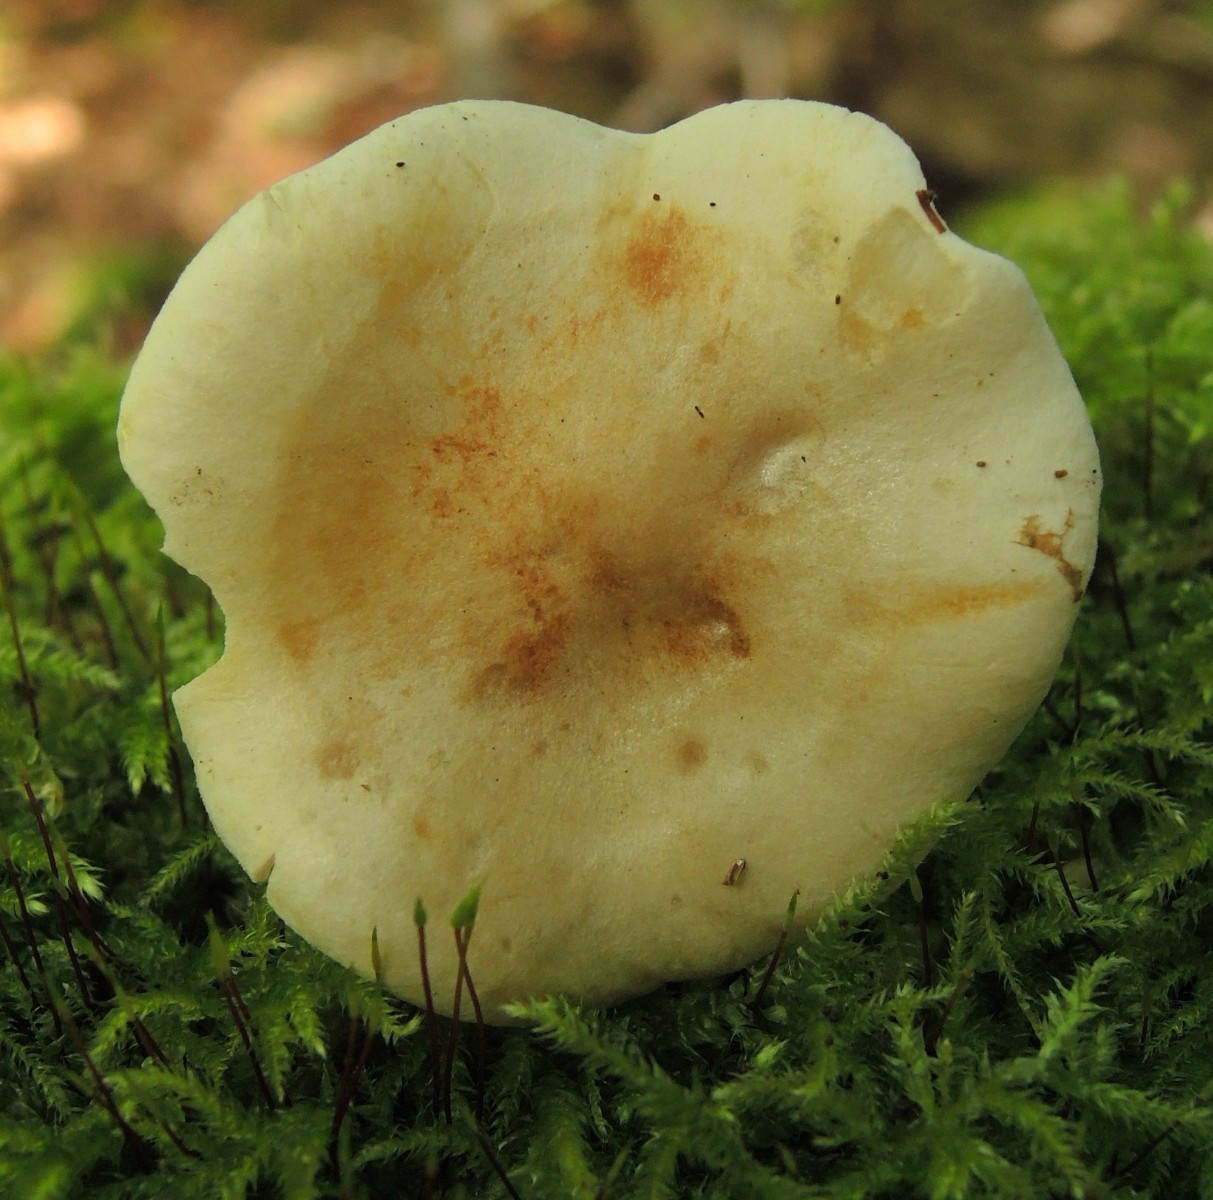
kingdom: Fungi
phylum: Basidiomycota
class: Agaricomycetes
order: Agaricales
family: Tricholomataceae
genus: Tricholoma
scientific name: Tricholoma lascivum
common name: stinkende ridderhat
